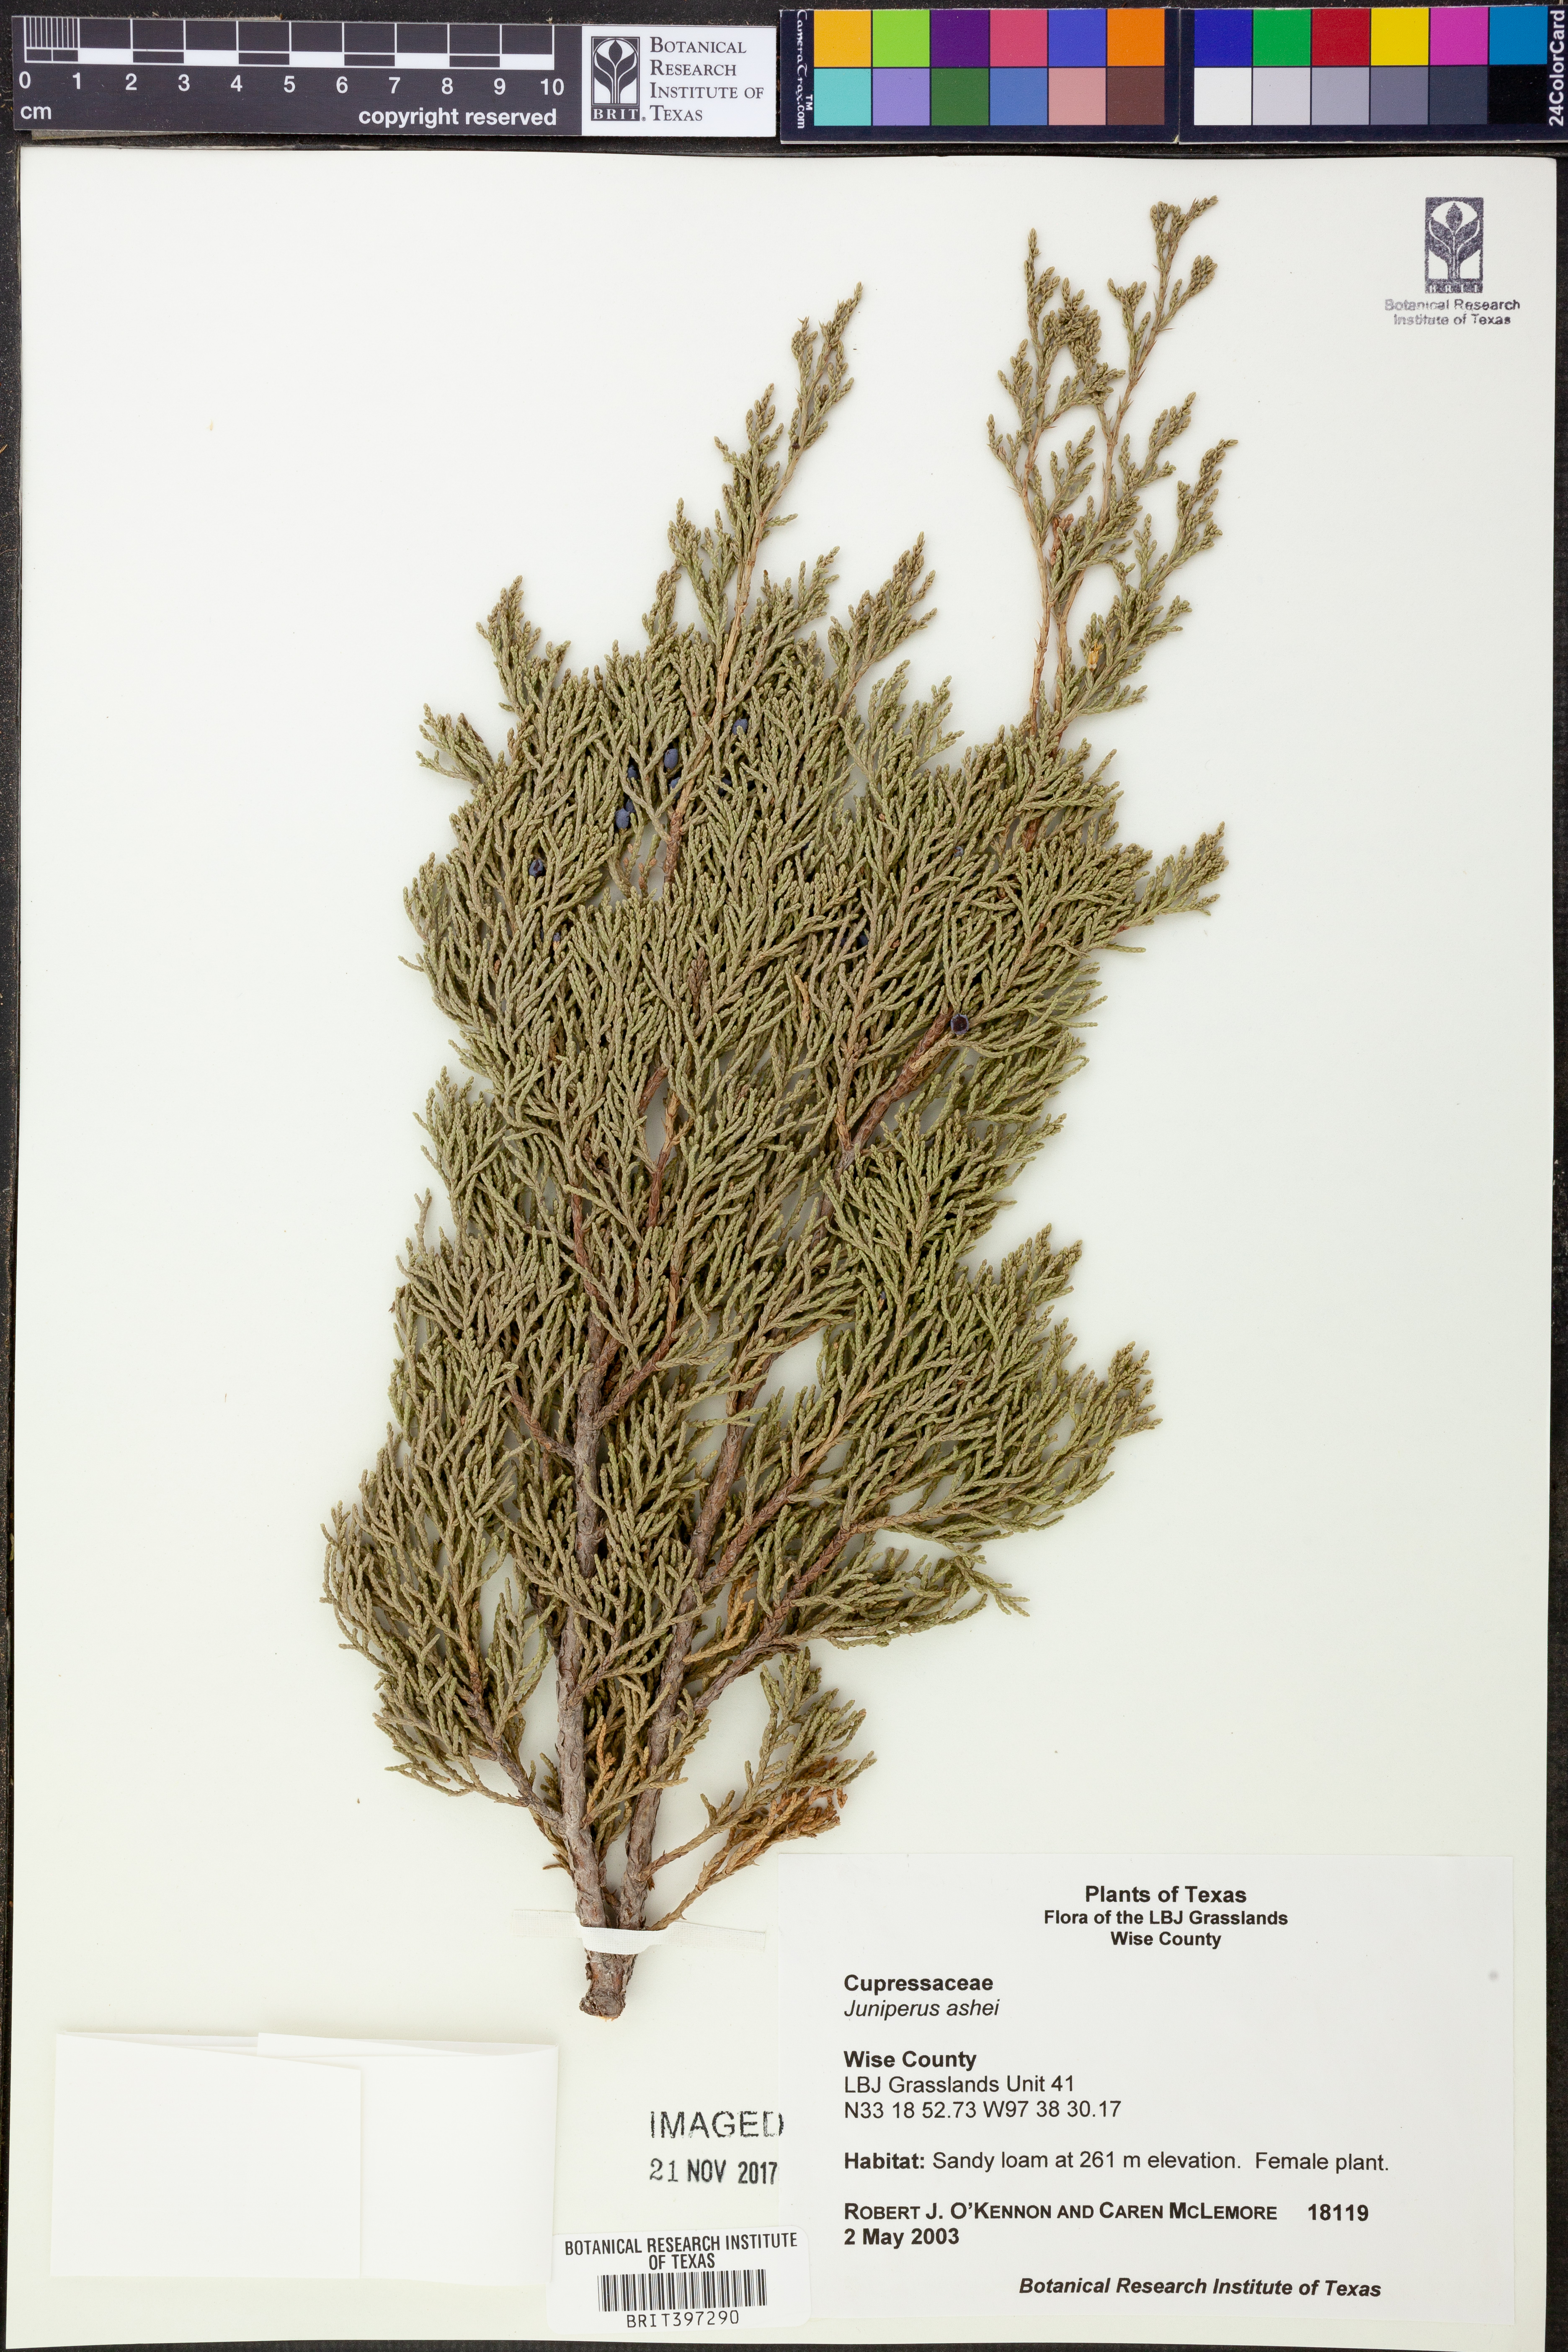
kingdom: Plantae
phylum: Tracheophyta
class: Pinopsida
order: Pinales
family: Cupressaceae
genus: Juniperus
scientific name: Juniperus ashei
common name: Mexican juniper
